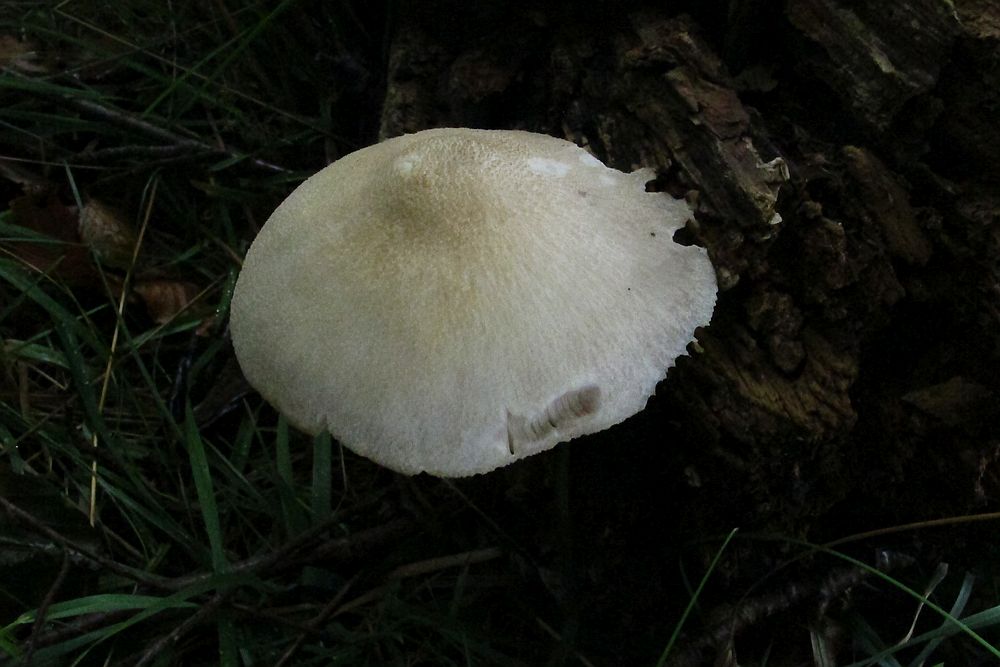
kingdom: Fungi
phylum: Basidiomycota
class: Agaricomycetes
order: Agaricales
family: Pluteaceae
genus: Volvariella
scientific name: Volvariella bombycina
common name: silkehåret posesvamp
